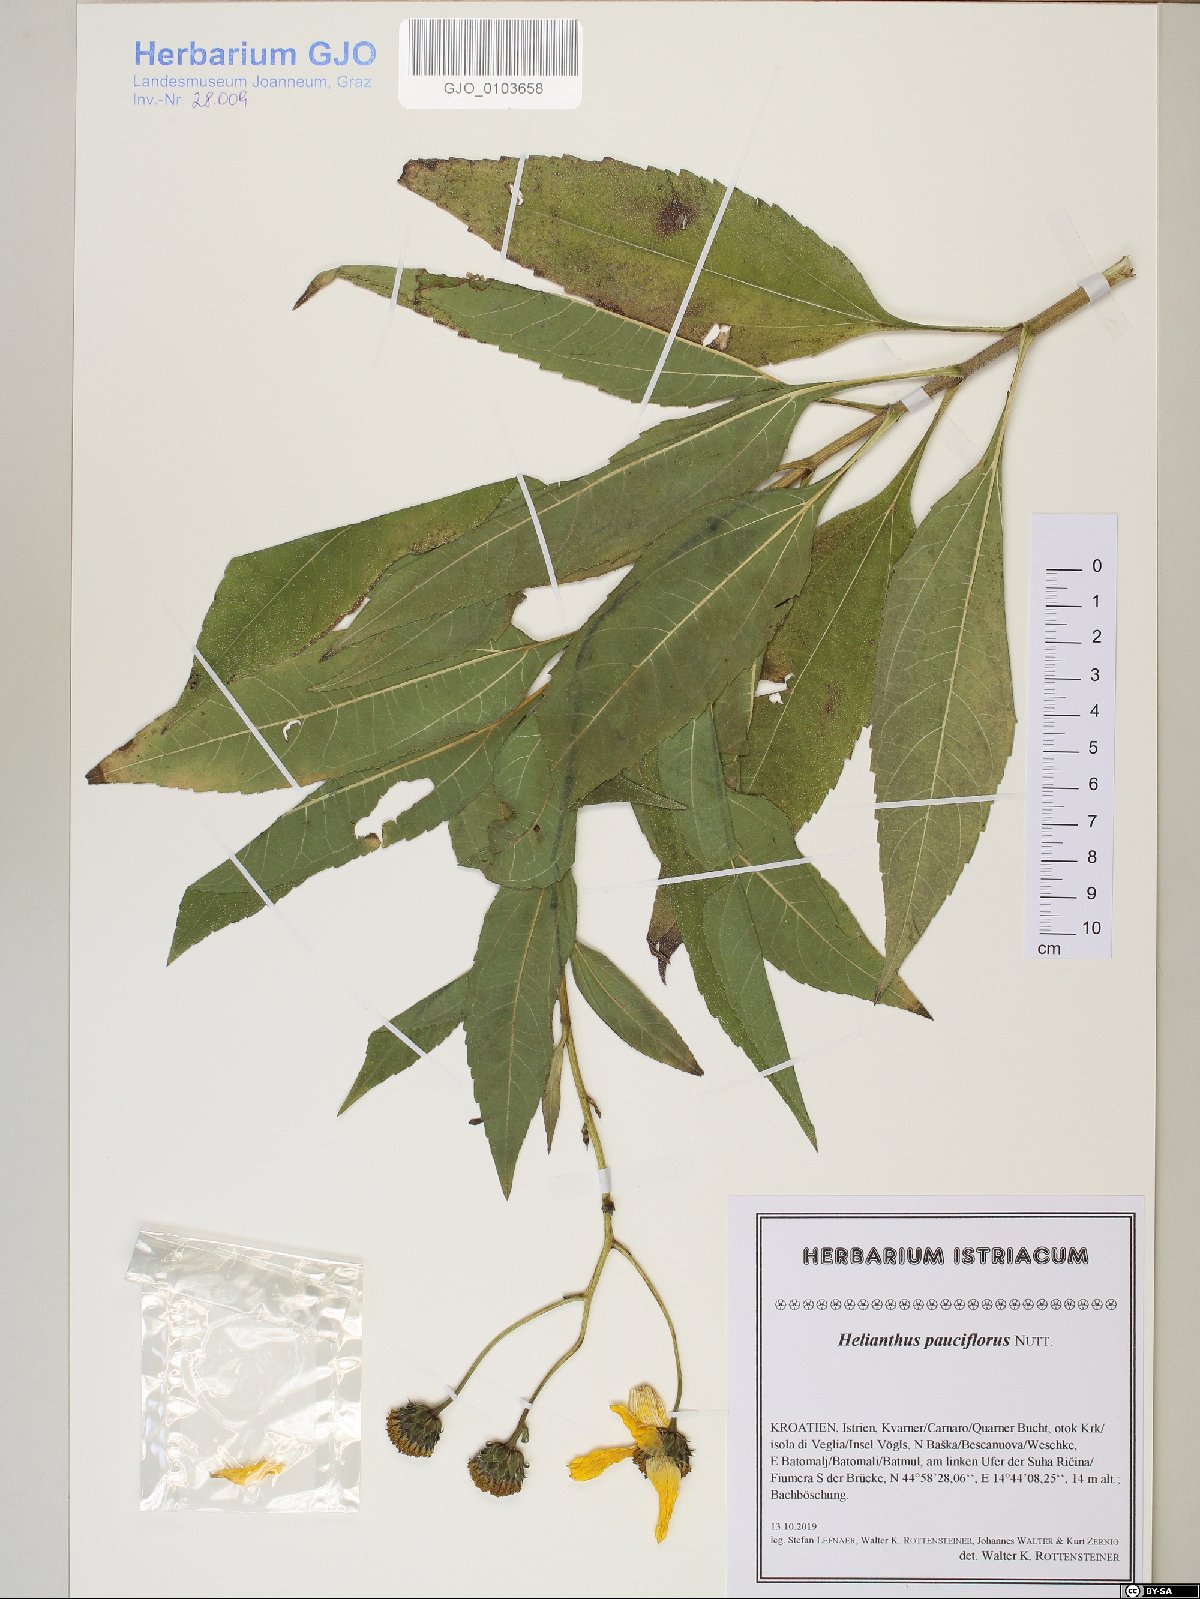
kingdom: Plantae
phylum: Tracheophyta
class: Magnoliopsida
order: Asterales
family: Asteraceae
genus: Helianthus
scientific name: Helianthus pauciflorus
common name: Stiff sunflower
